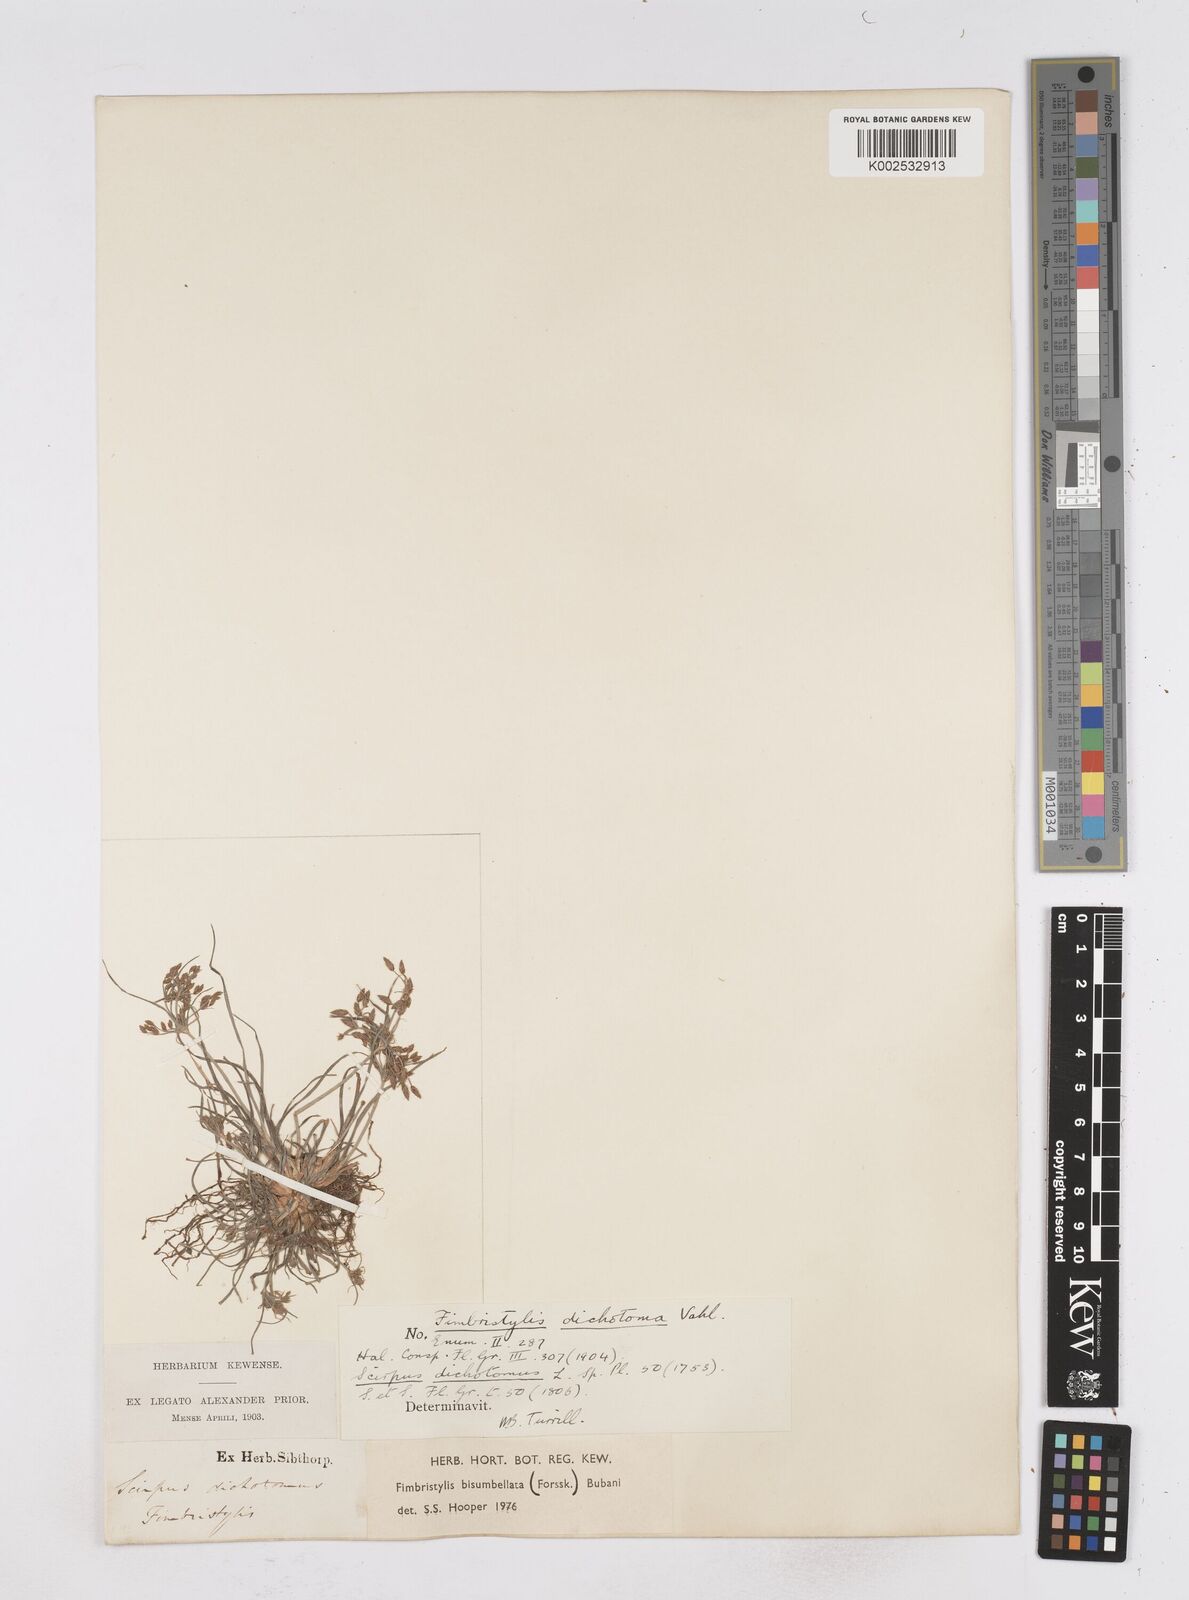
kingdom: Plantae
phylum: Tracheophyta
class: Liliopsida
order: Poales
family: Cyperaceae
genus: Fimbristylis
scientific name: Fimbristylis bisumbellata
